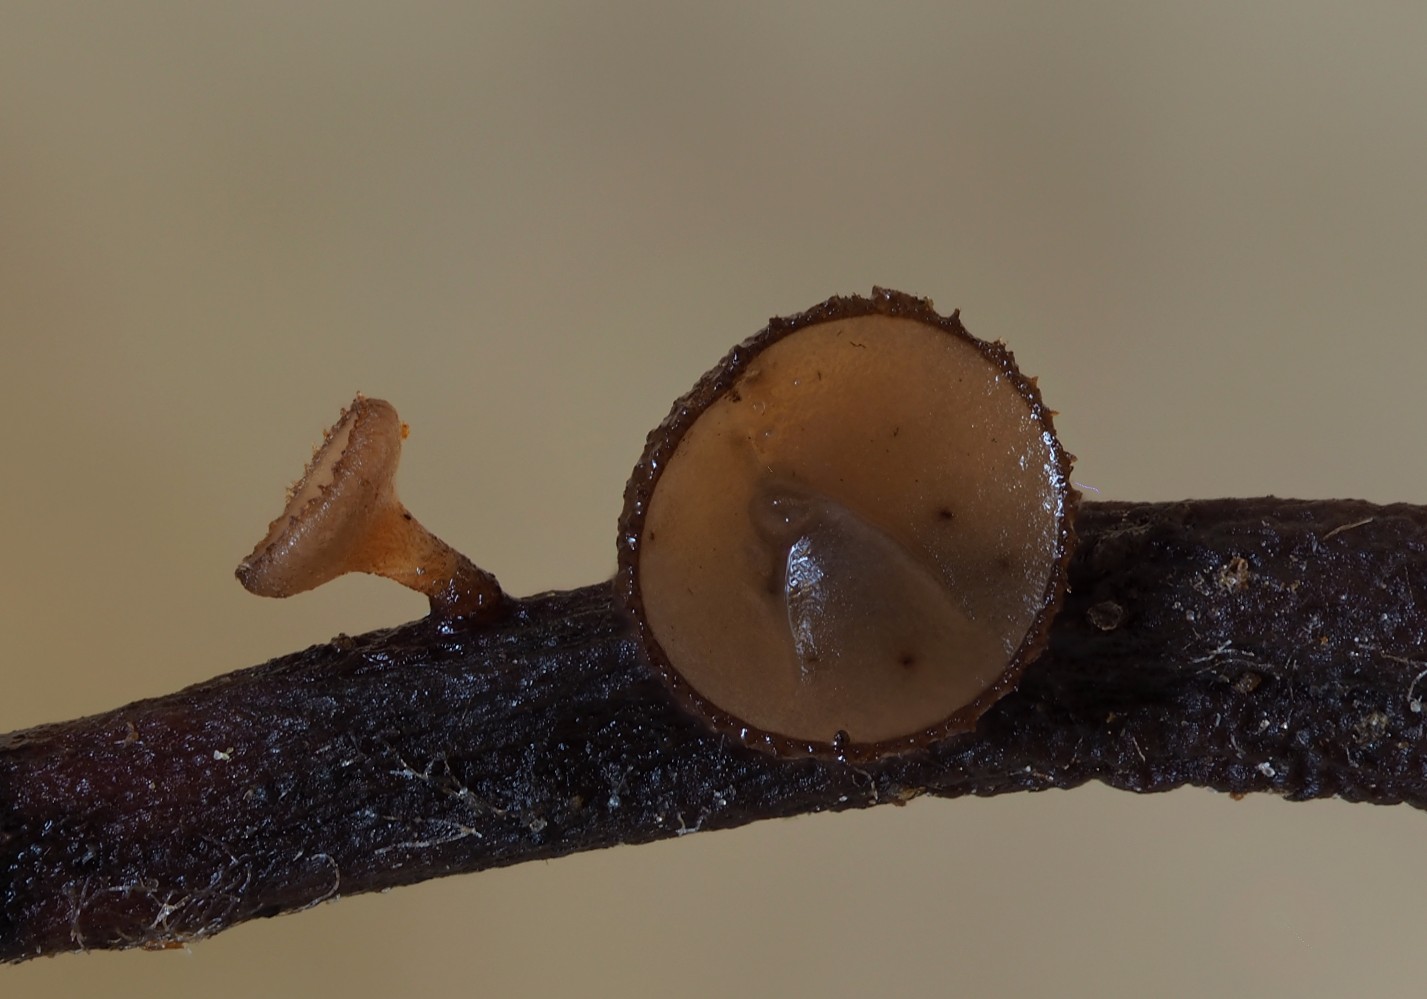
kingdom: Fungi
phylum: Ascomycota
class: Leotiomycetes
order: Helotiales
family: Rutstroemiaceae
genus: Rutstroemia
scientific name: Rutstroemia
